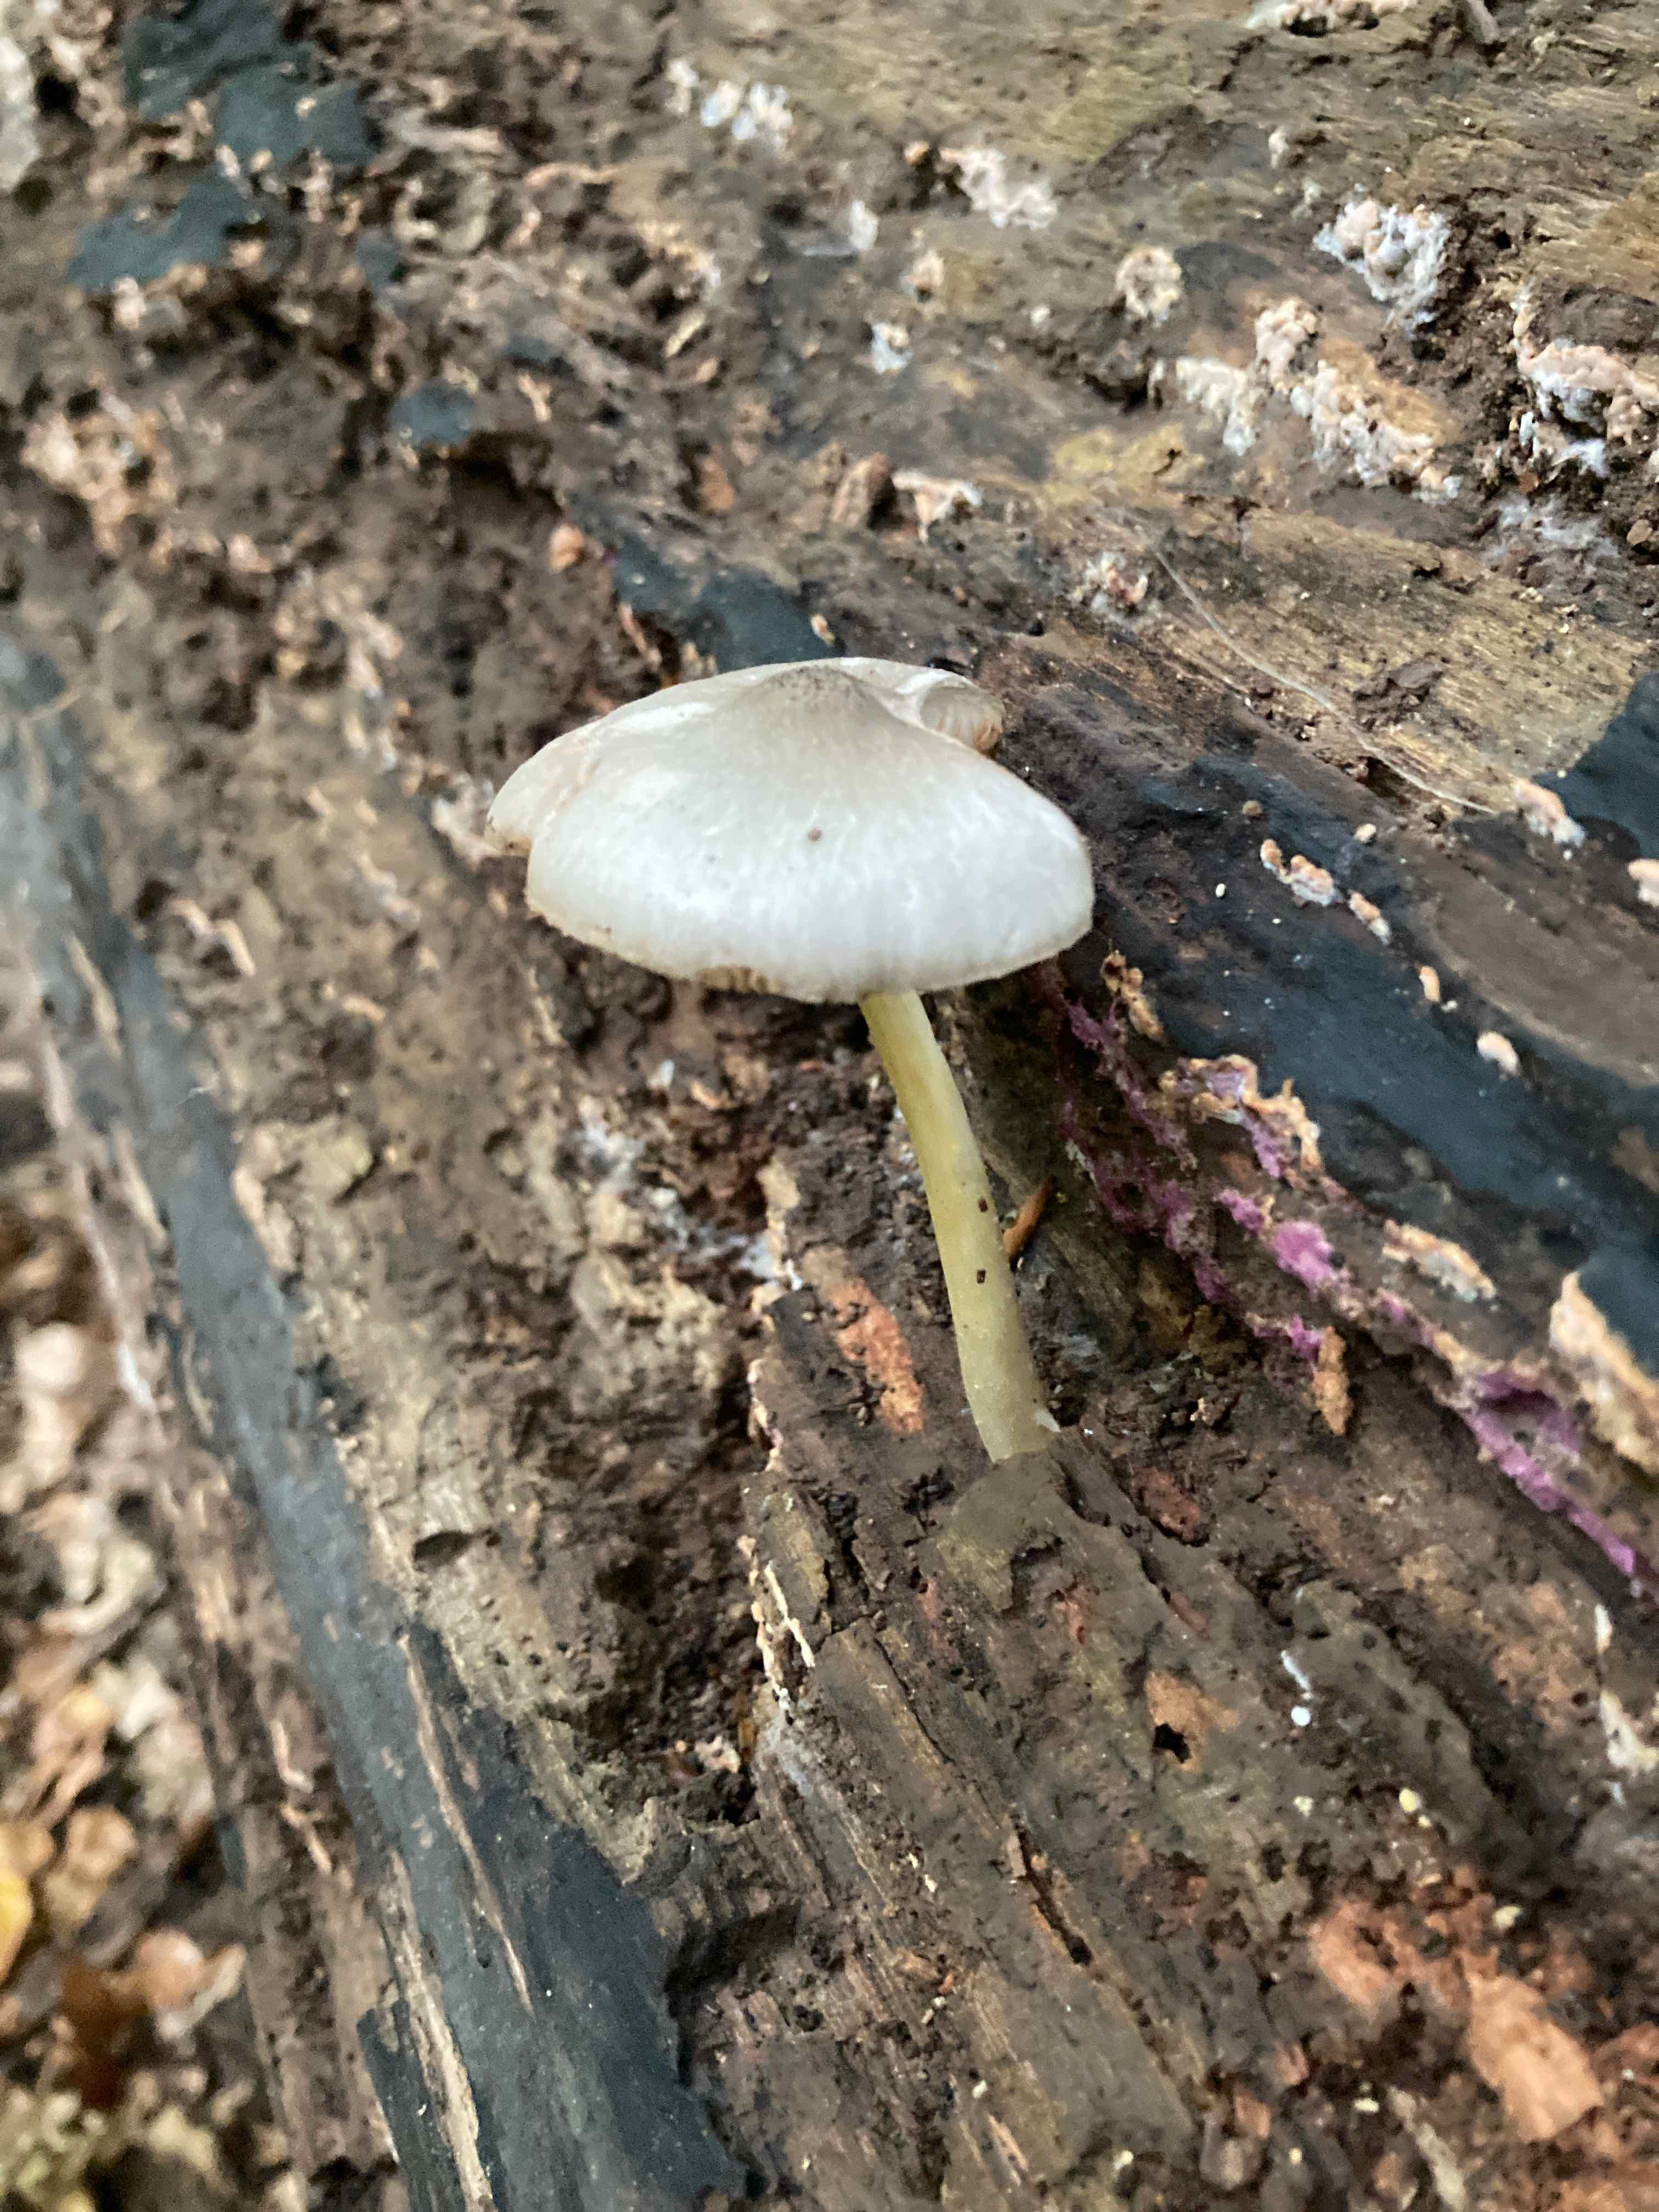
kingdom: Fungi
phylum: Basidiomycota
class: Agaricomycetes
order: Agaricales
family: Pluteaceae
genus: Pluteus
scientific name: Pluteus salicinus
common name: stiv skærmhat
